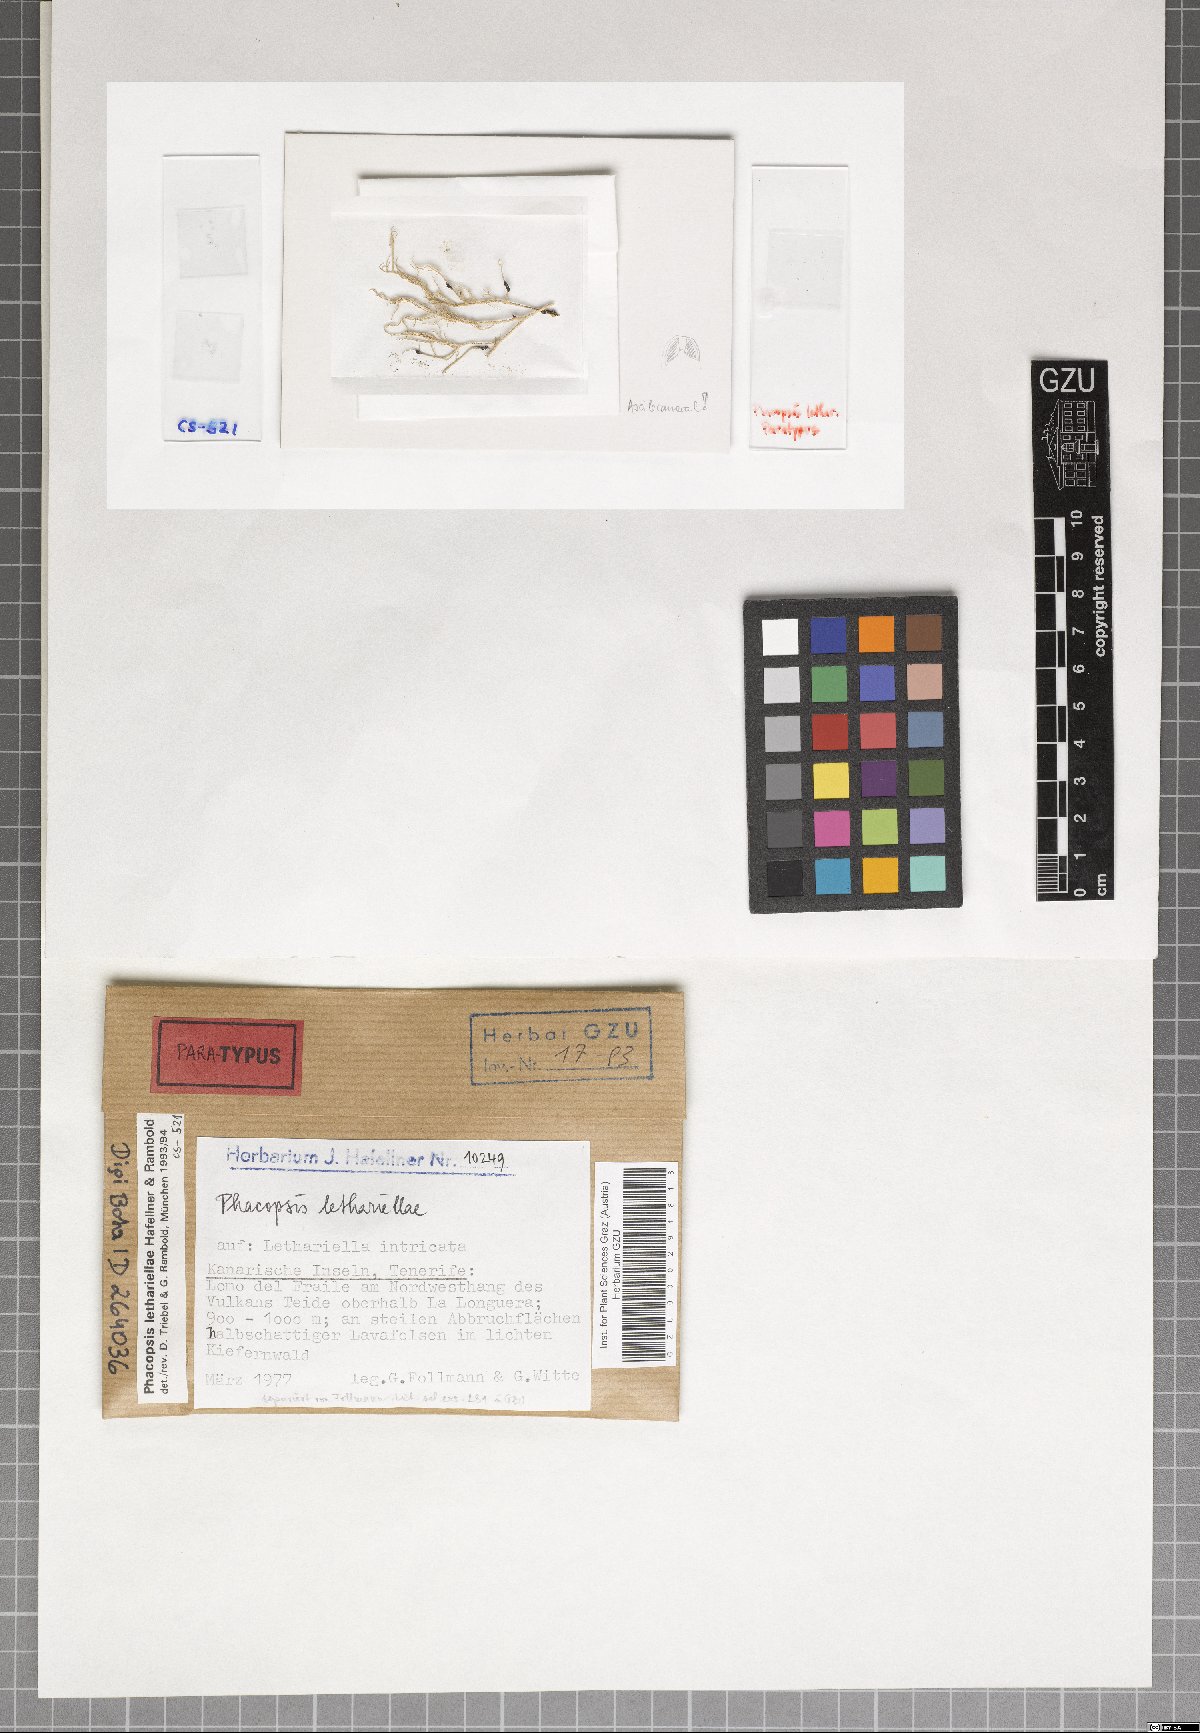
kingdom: Fungi
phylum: Ascomycota
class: Lecanoromycetes
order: Lecanorales
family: Parmeliaceae
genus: Phacopsis
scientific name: Phacopsis
